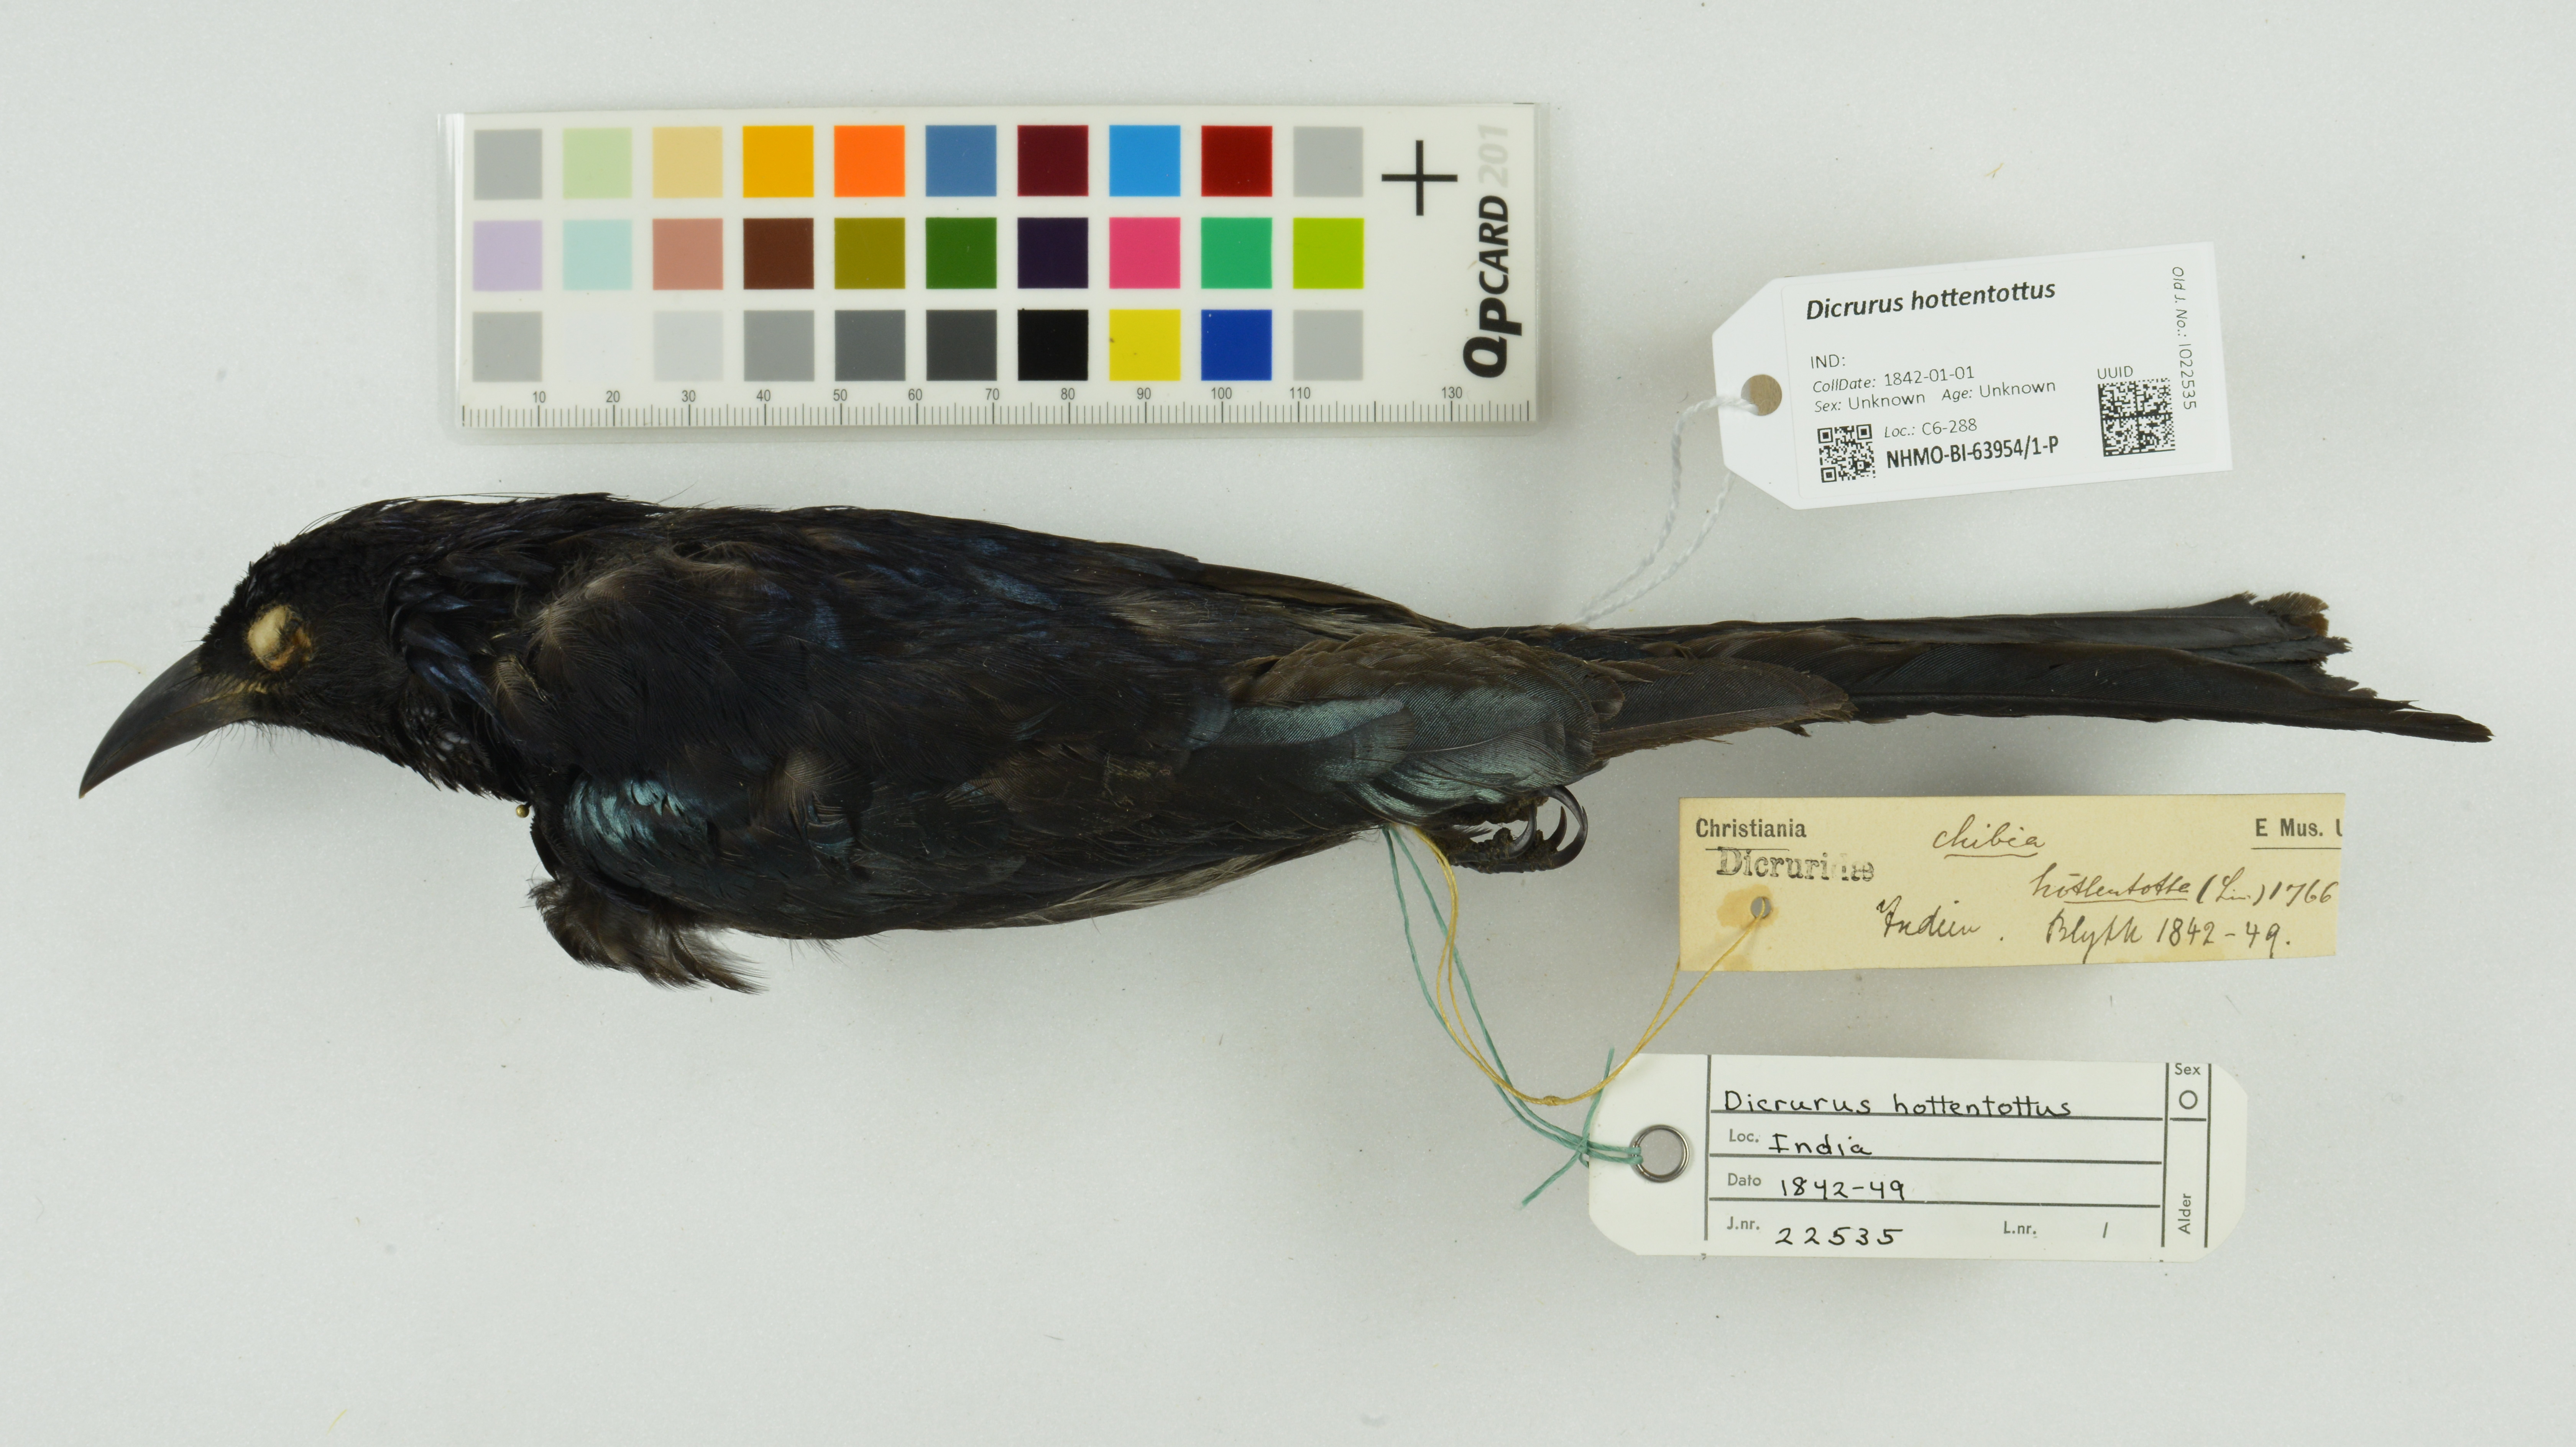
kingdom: Animalia
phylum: Chordata
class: Aves
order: Passeriformes
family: Dicruridae
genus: Dicrurus
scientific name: Dicrurus hottentottus
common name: Hair-crested drongo
